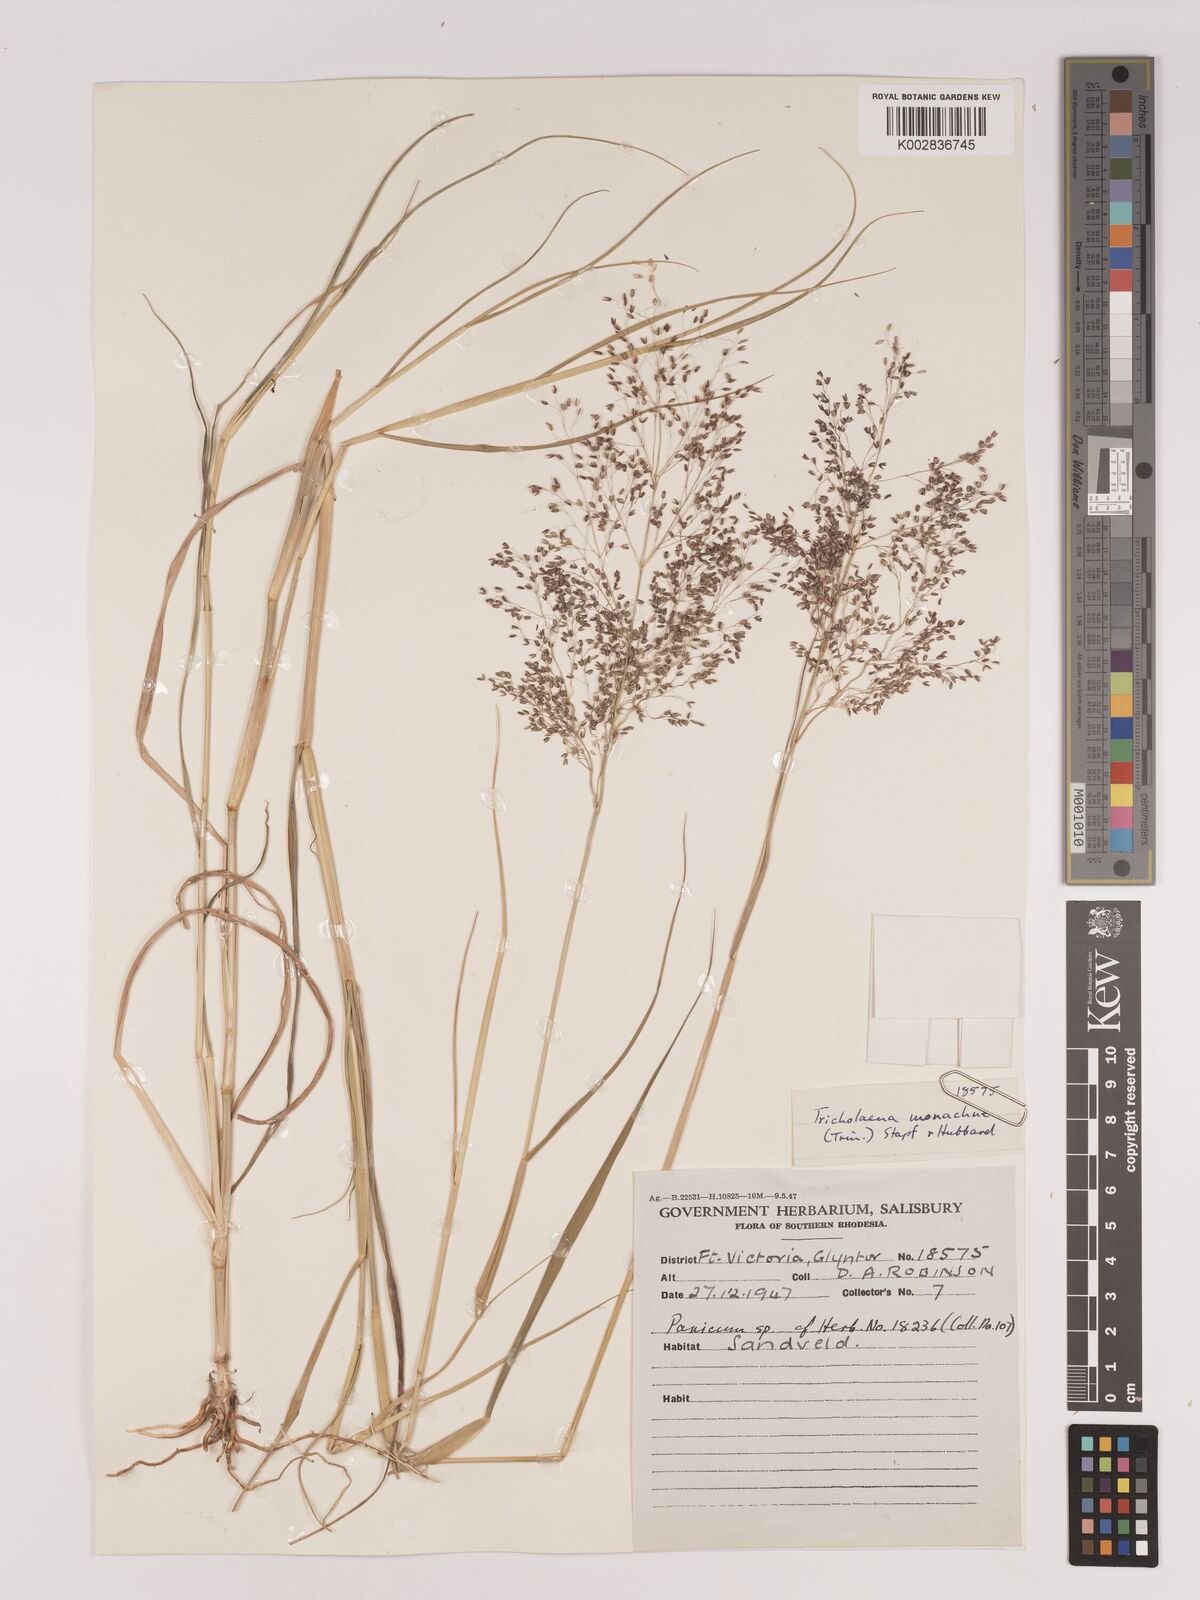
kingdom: Plantae
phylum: Tracheophyta
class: Liliopsida
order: Poales
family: Poaceae
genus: Tricholaena
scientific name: Tricholaena monachne
